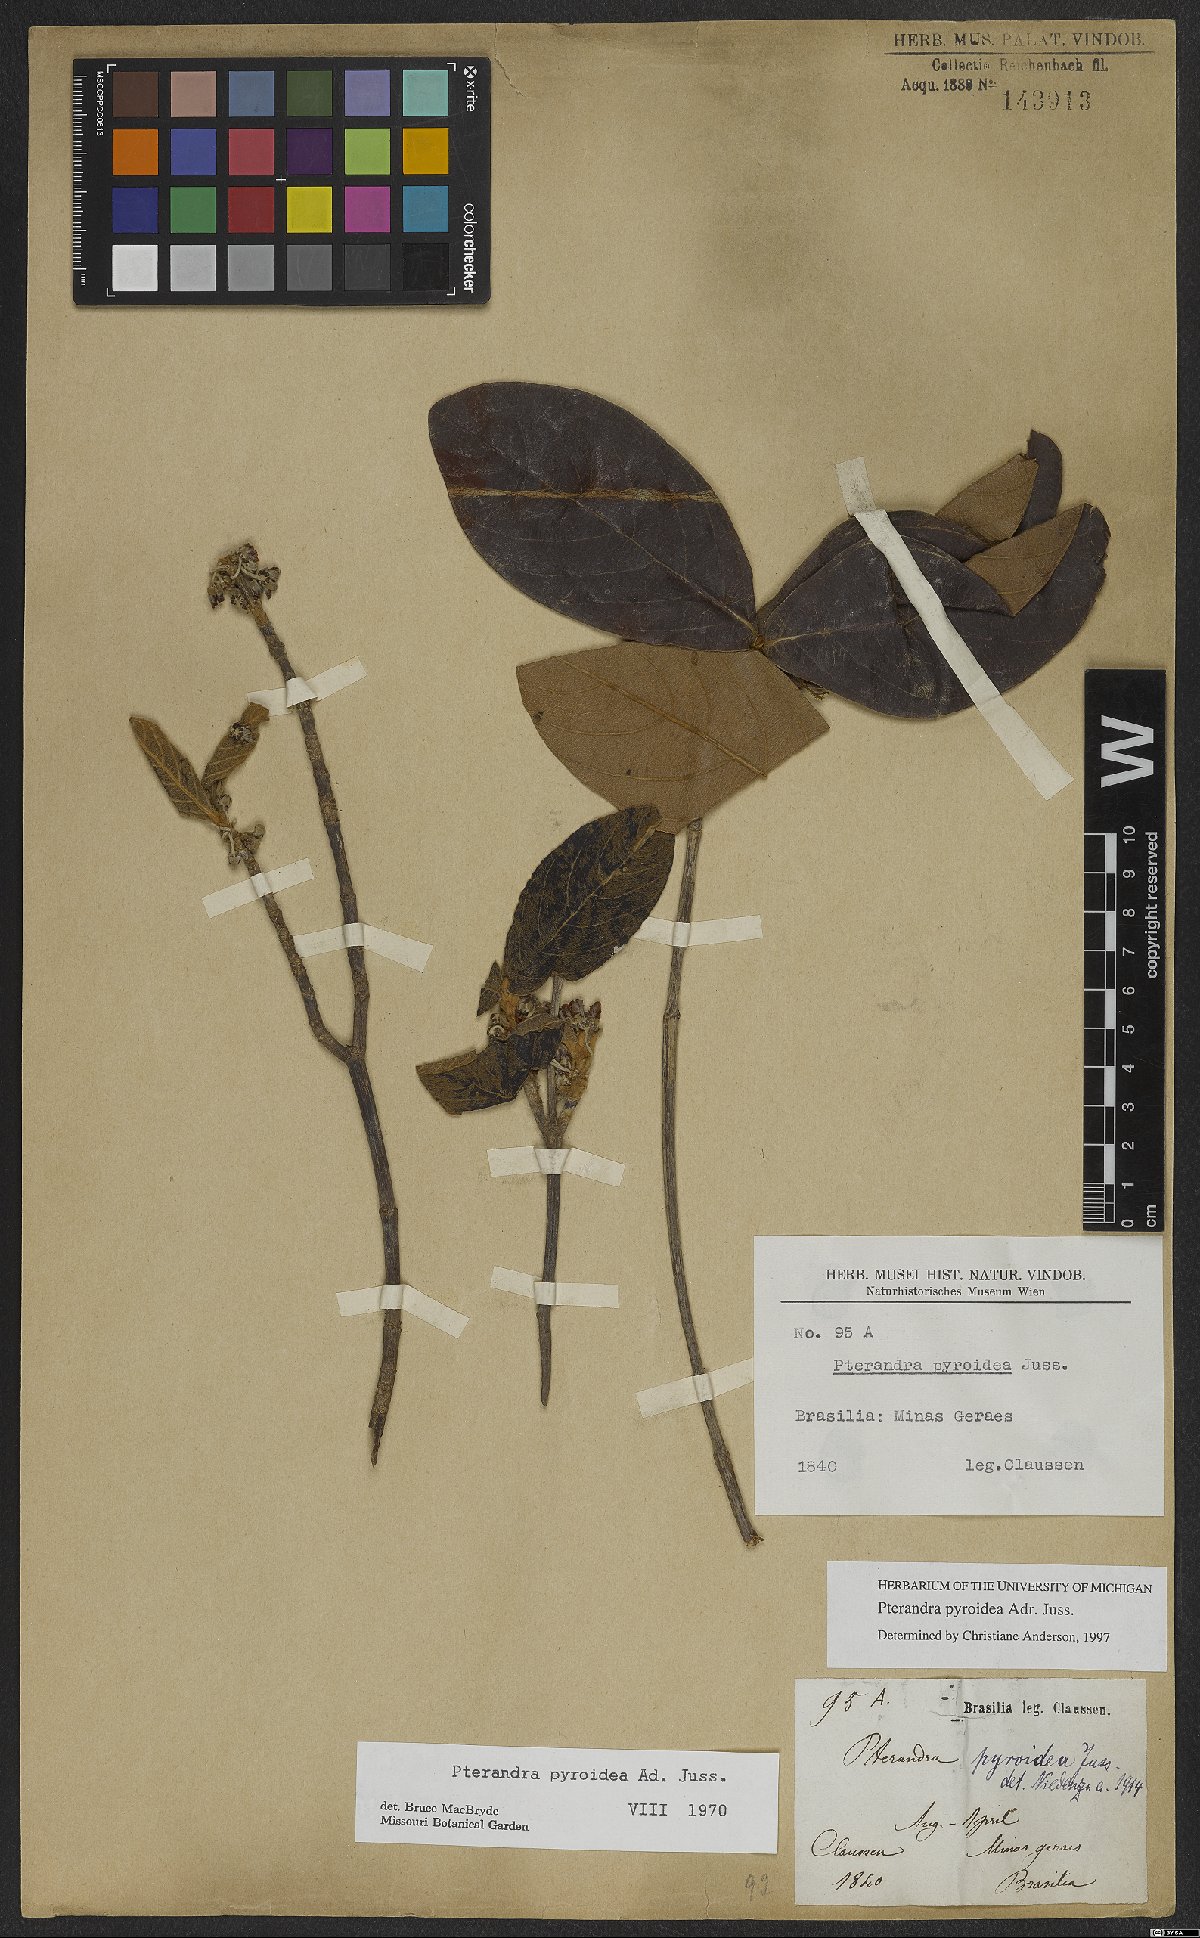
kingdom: Plantae
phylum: Tracheophyta
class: Magnoliopsida
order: Malpighiales
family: Malpighiaceae
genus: Pterandra
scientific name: Pterandra pyroidea
